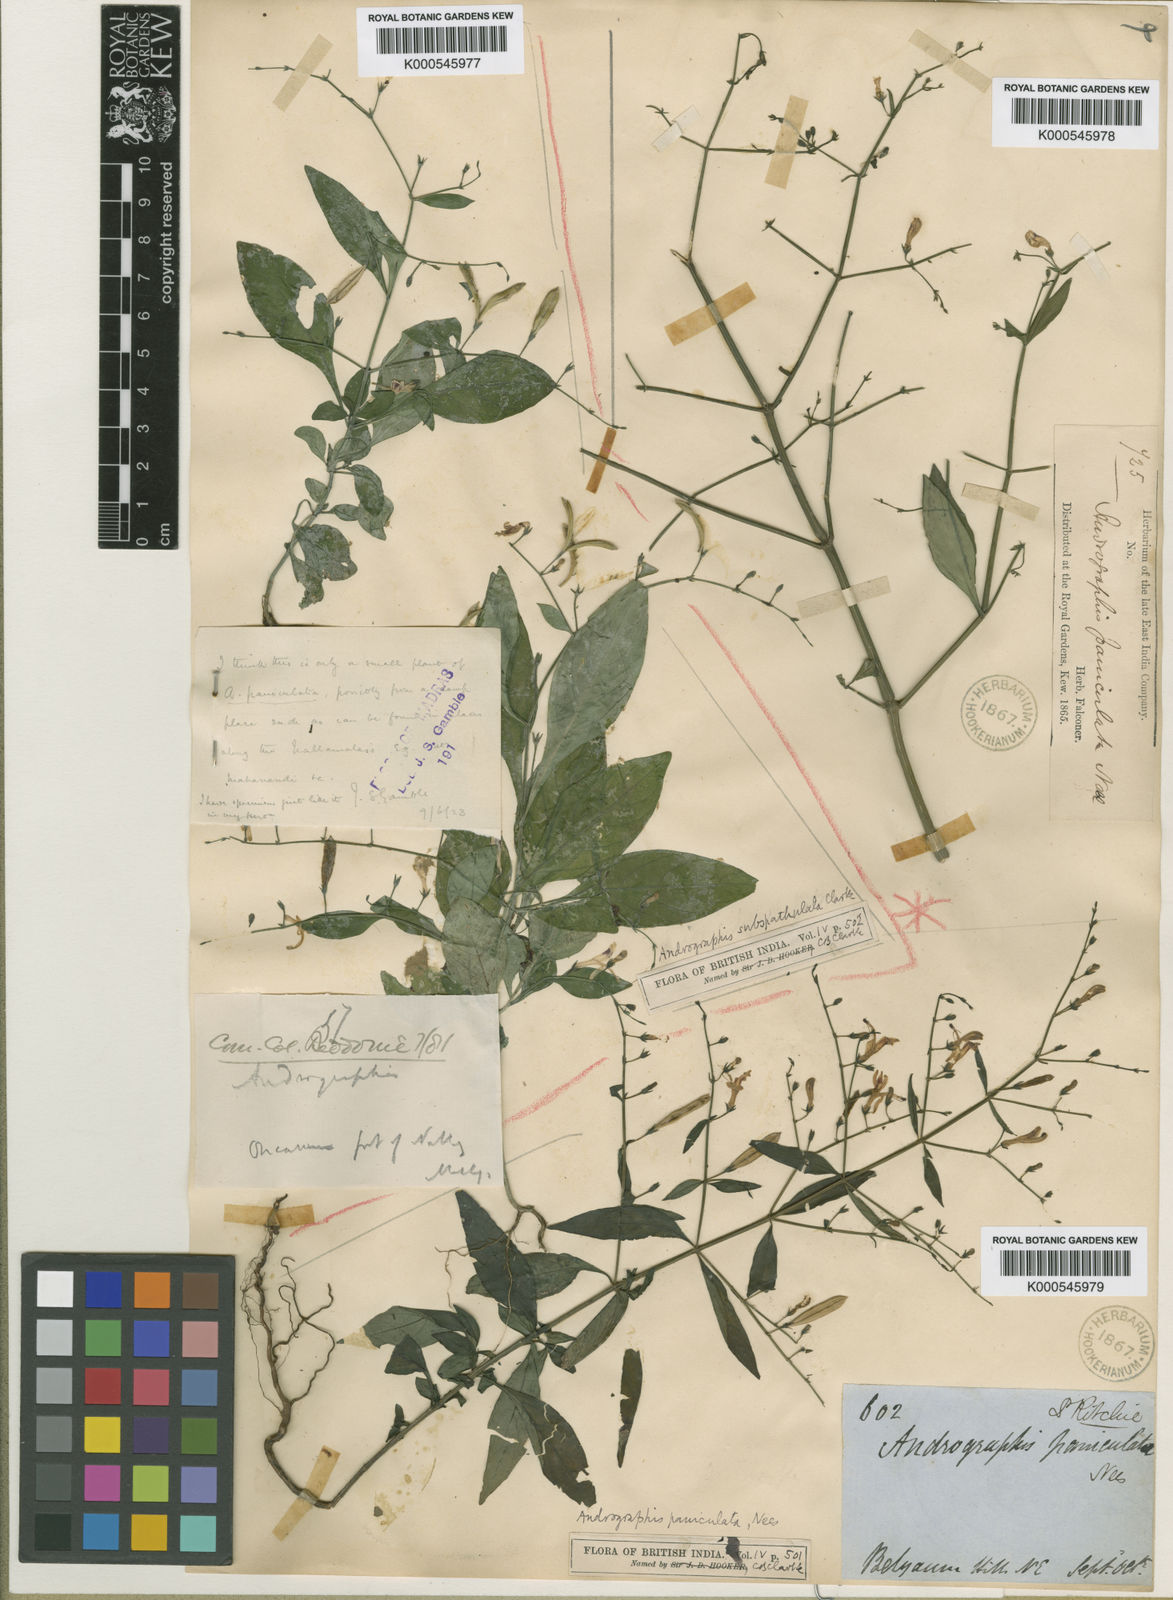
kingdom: Plantae
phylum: Tracheophyta
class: Magnoliopsida
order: Lamiales
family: Acanthaceae
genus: Andrographis
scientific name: Andrographis paniculata
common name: Green chireta
